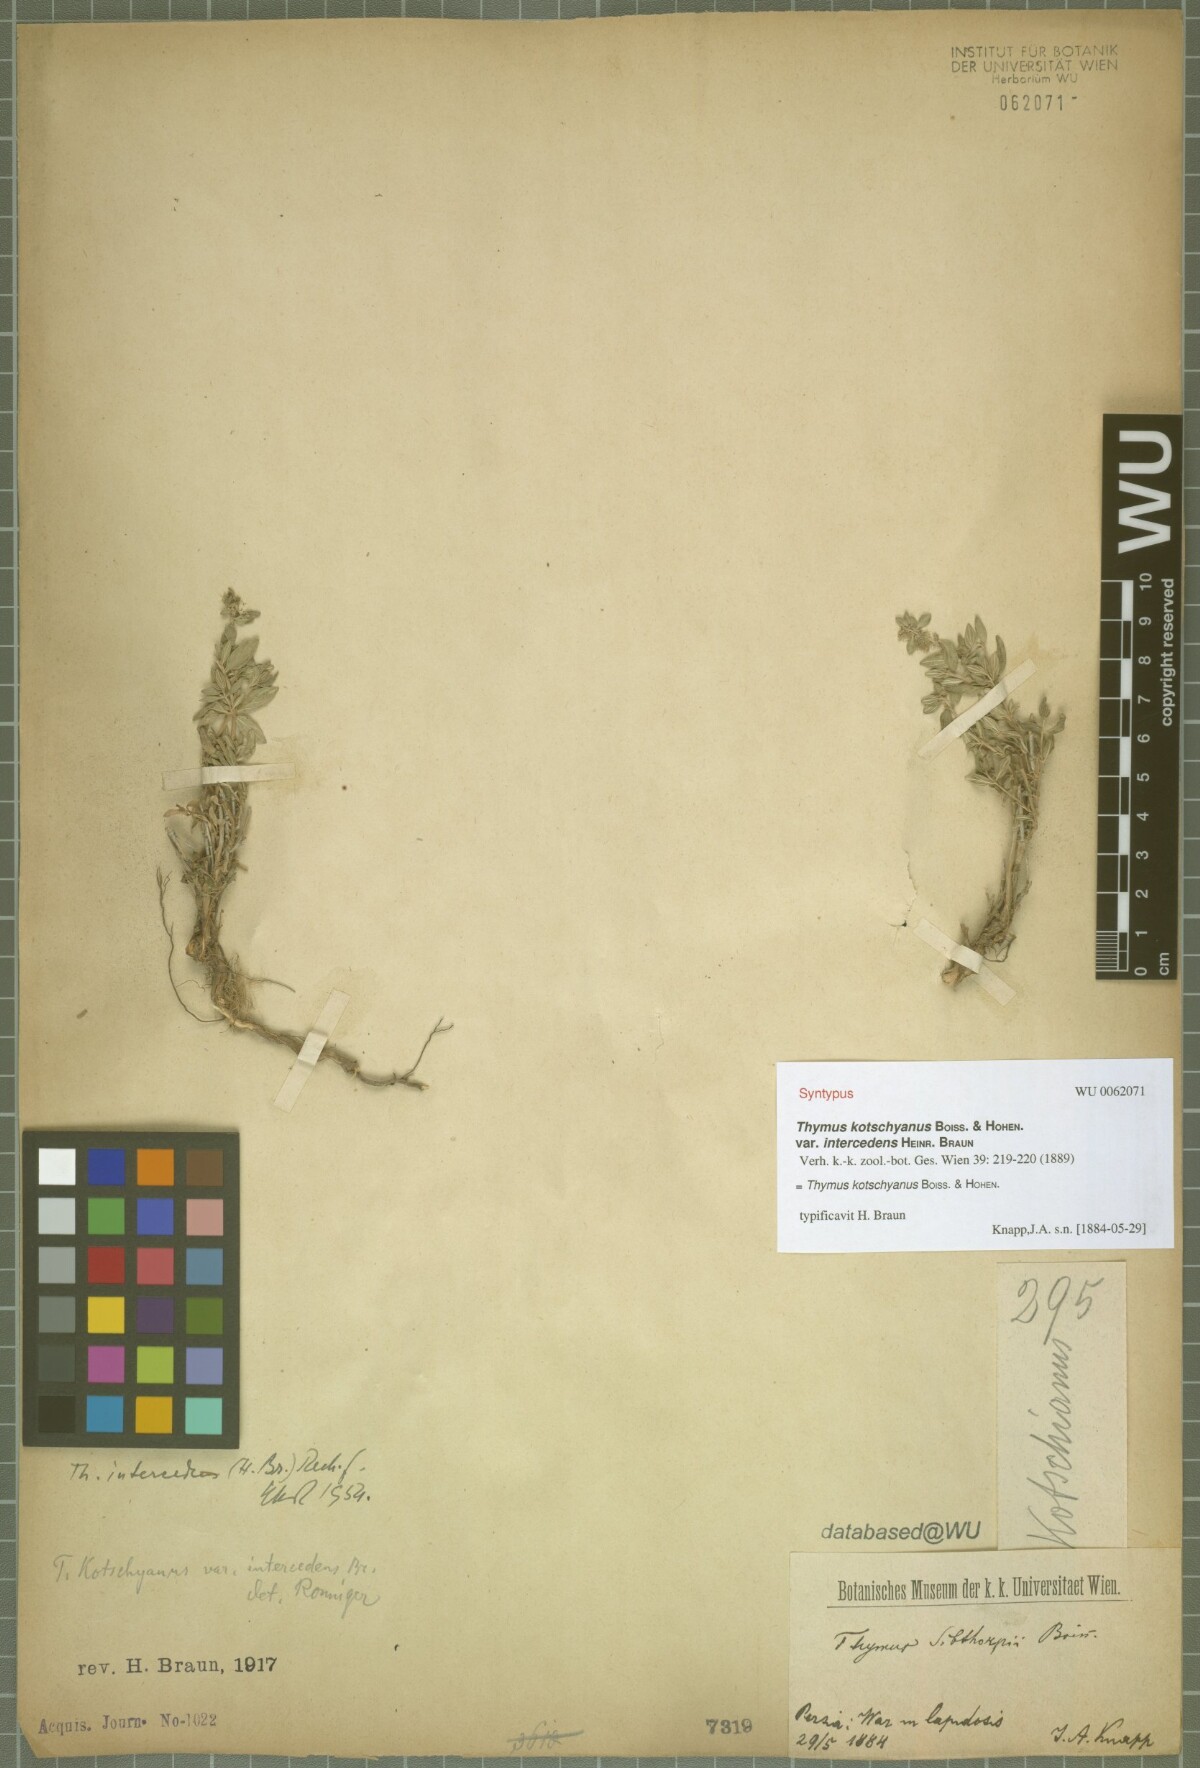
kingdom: Plantae
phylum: Tracheophyta
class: Magnoliopsida
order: Lamiales
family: Lamiaceae
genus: Thymus
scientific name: Thymus kotschyanus
